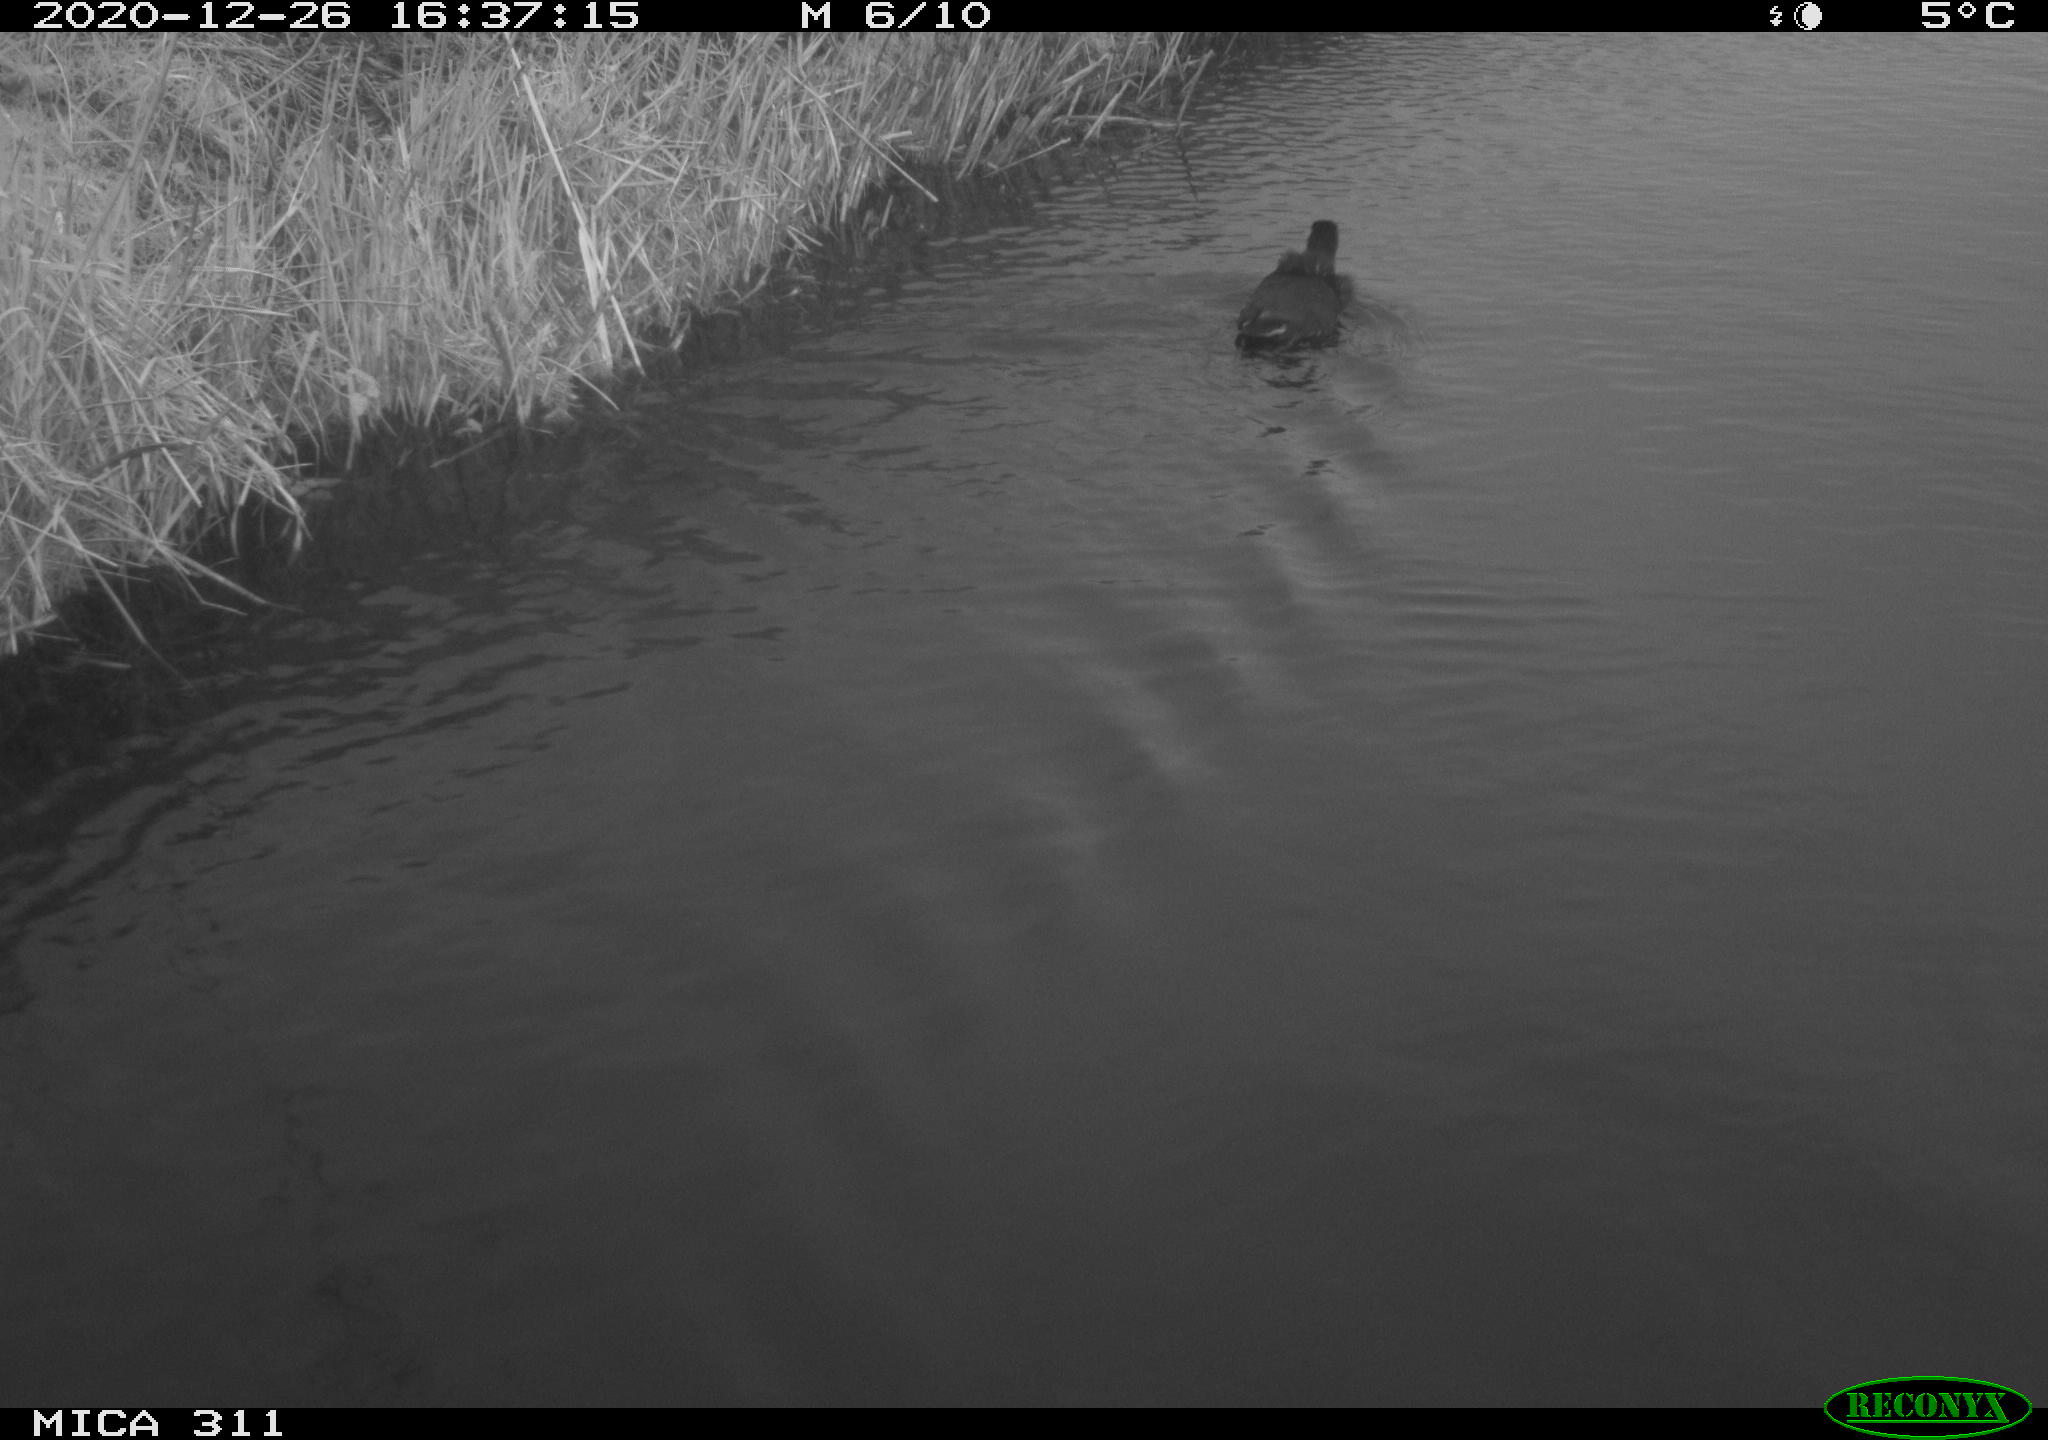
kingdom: Animalia
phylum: Chordata
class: Aves
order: Gruiformes
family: Rallidae
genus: Gallinula
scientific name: Gallinula chloropus
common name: Common moorhen
